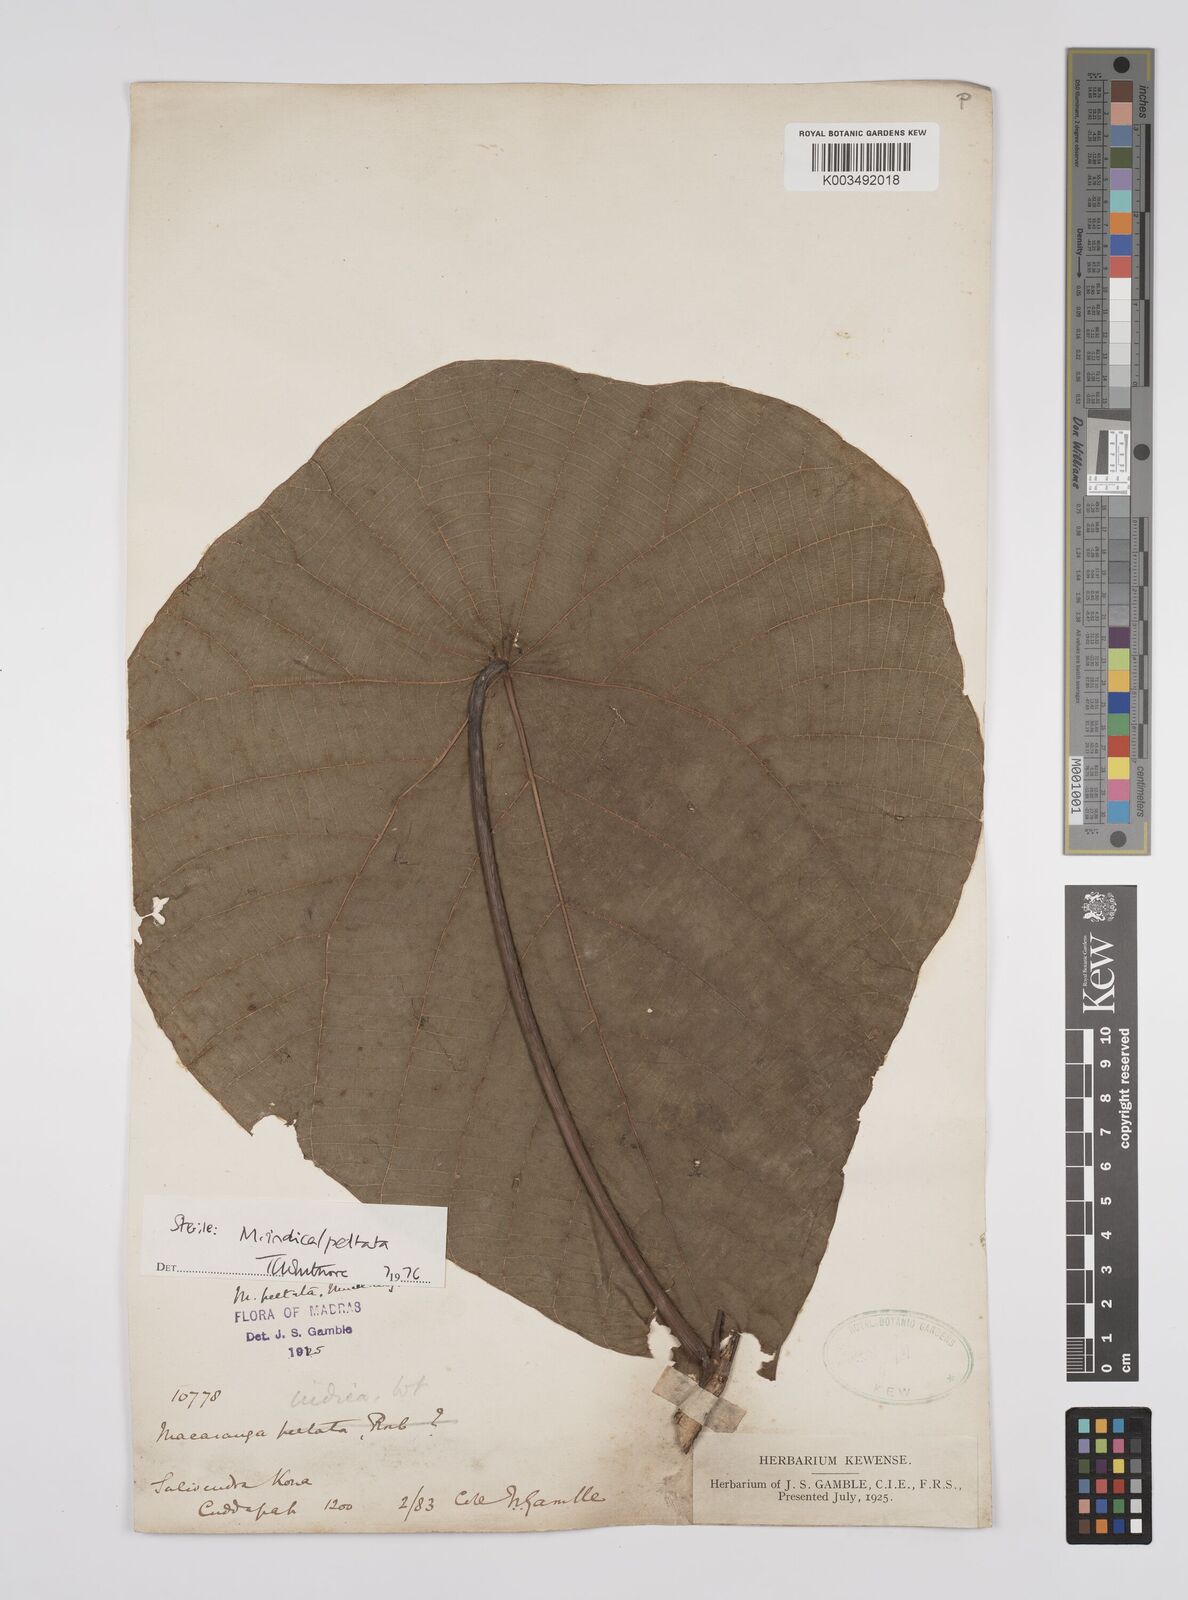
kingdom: Plantae
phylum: Tracheophyta
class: Magnoliopsida
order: Malpighiales
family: Euphorbiaceae
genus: Macaranga
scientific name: Macaranga indica
